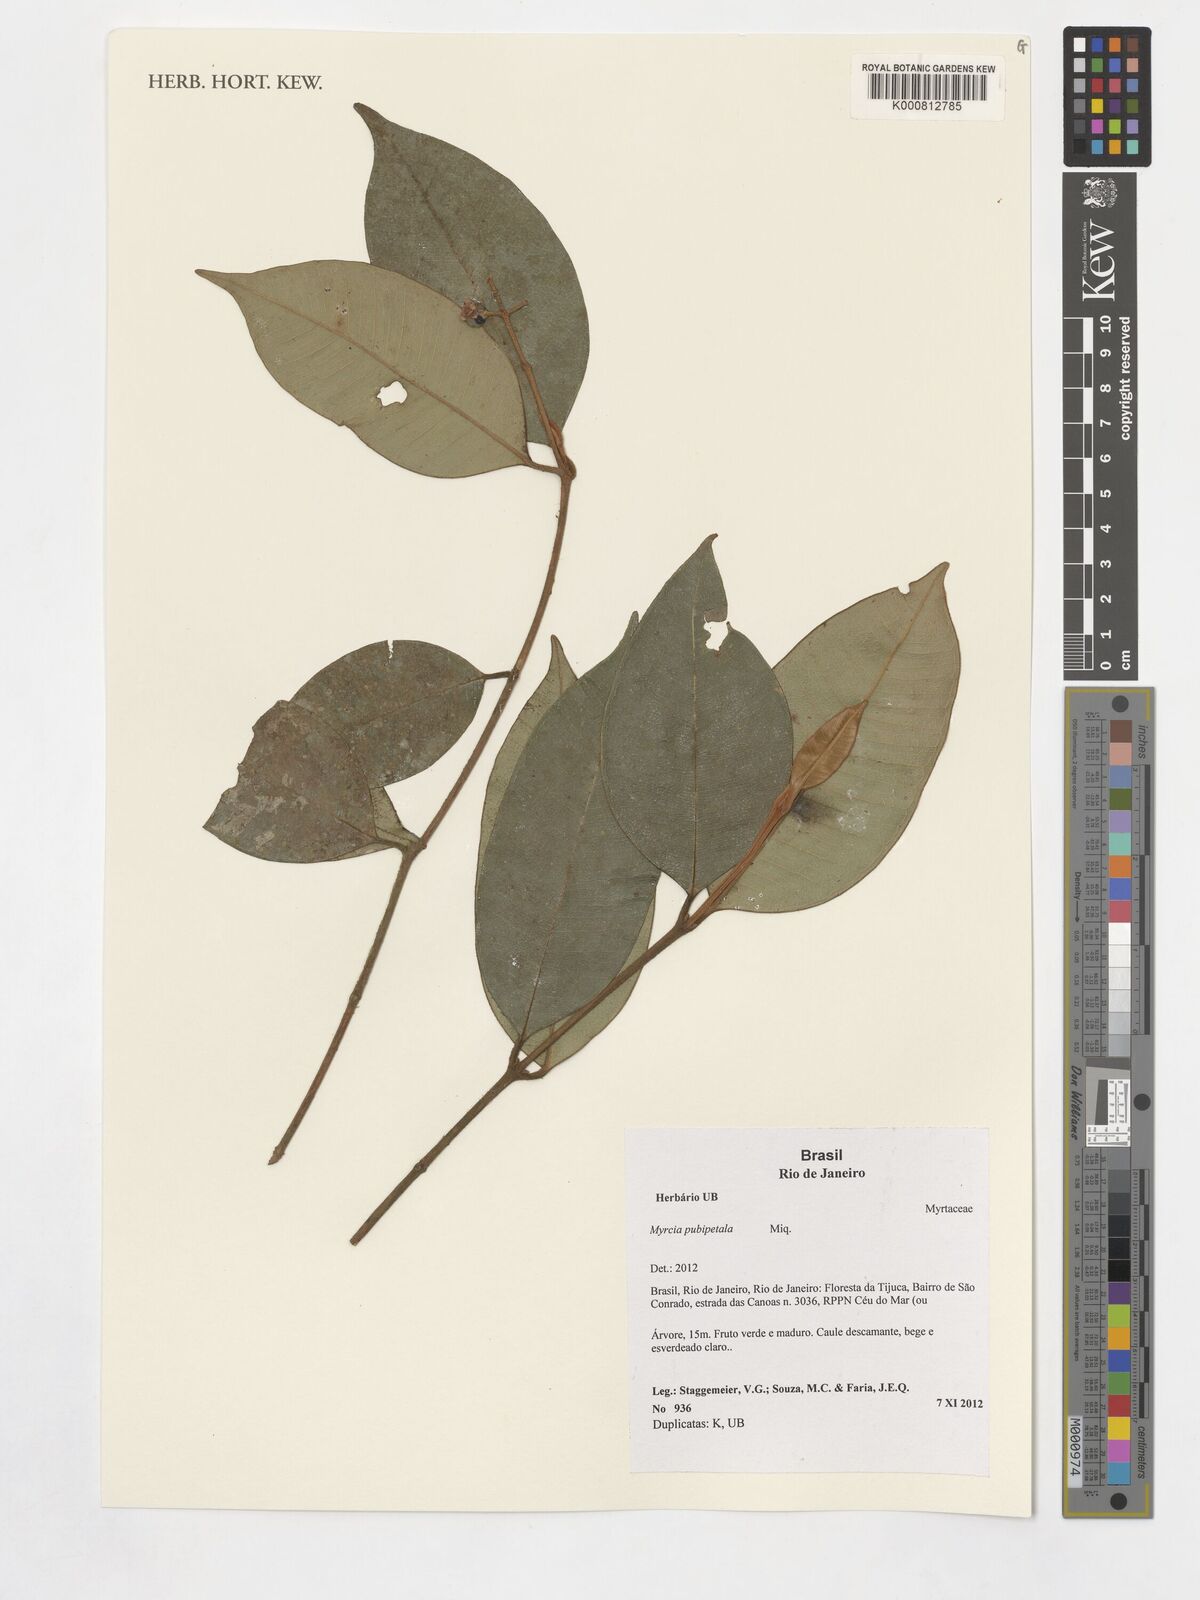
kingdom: Plantae
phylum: Tracheophyta
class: Magnoliopsida
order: Myrtales
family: Myrtaceae
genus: Myrcia
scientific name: Myrcia pubipetala
